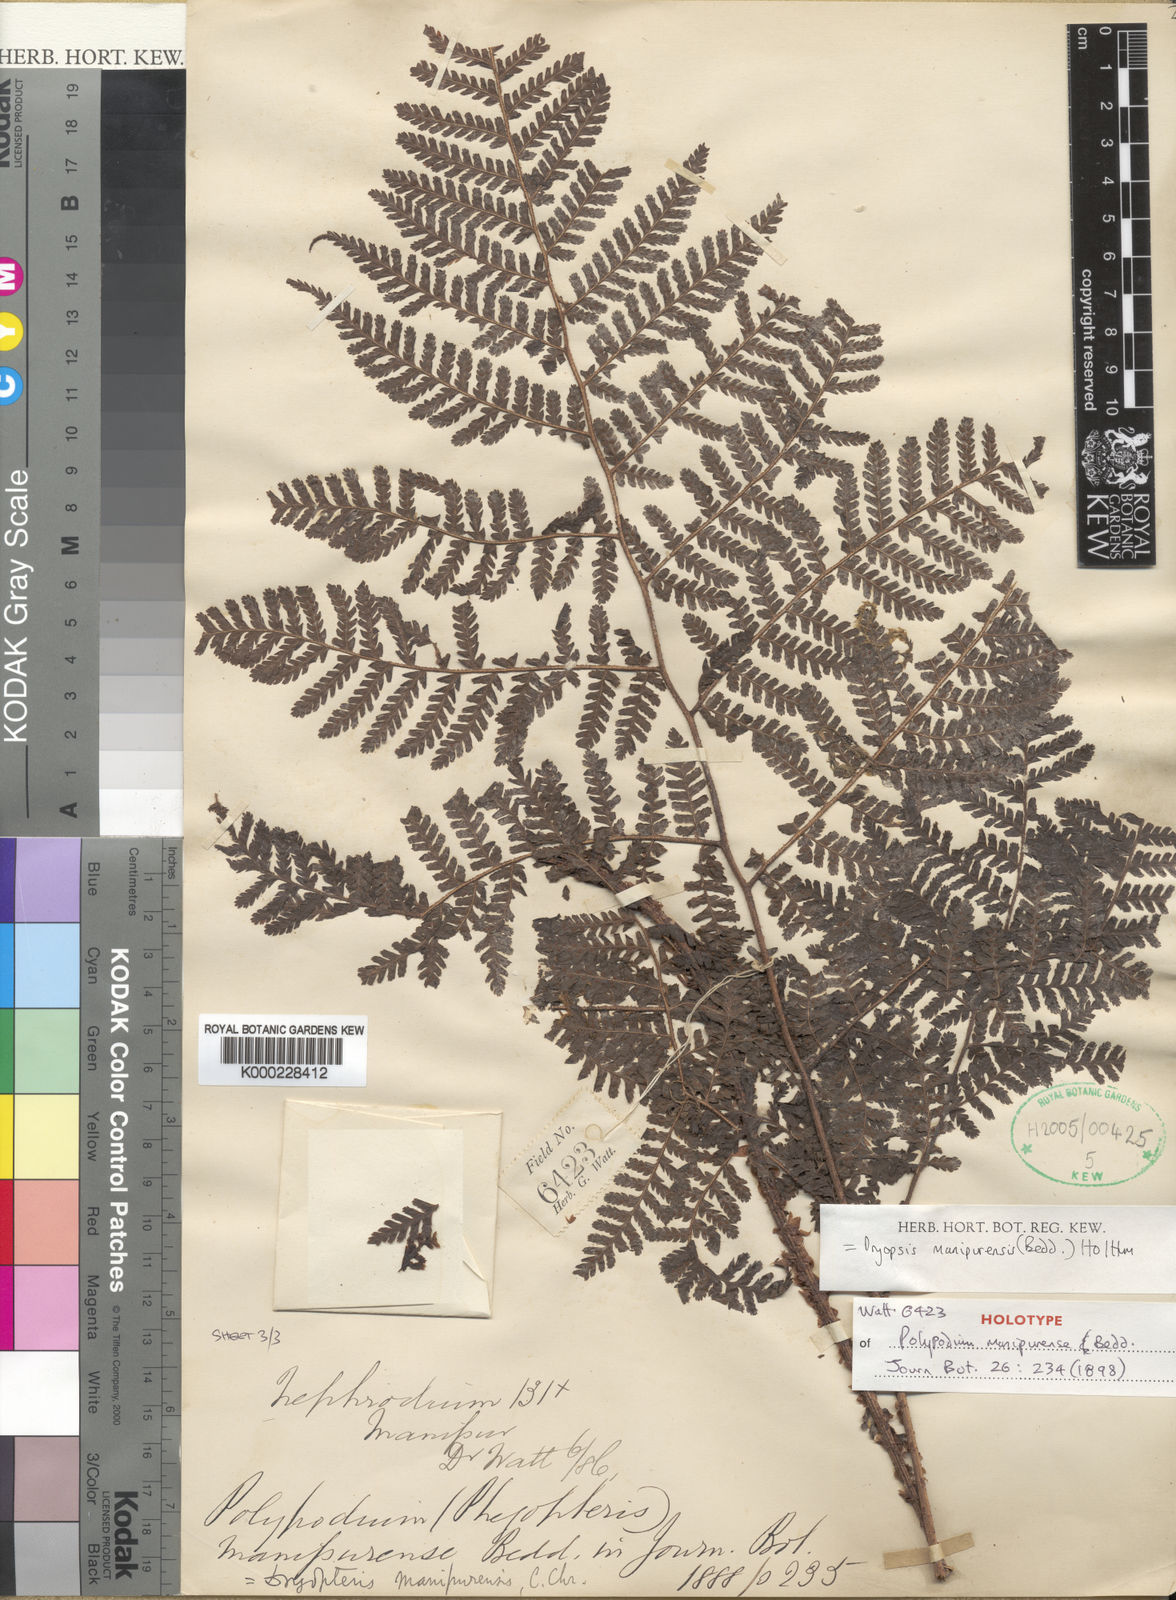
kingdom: Plantae
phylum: Tracheophyta
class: Polypodiopsida
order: Polypodiales
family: Dryopteridaceae
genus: Dryopteris
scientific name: Dryopteris manipurensis
